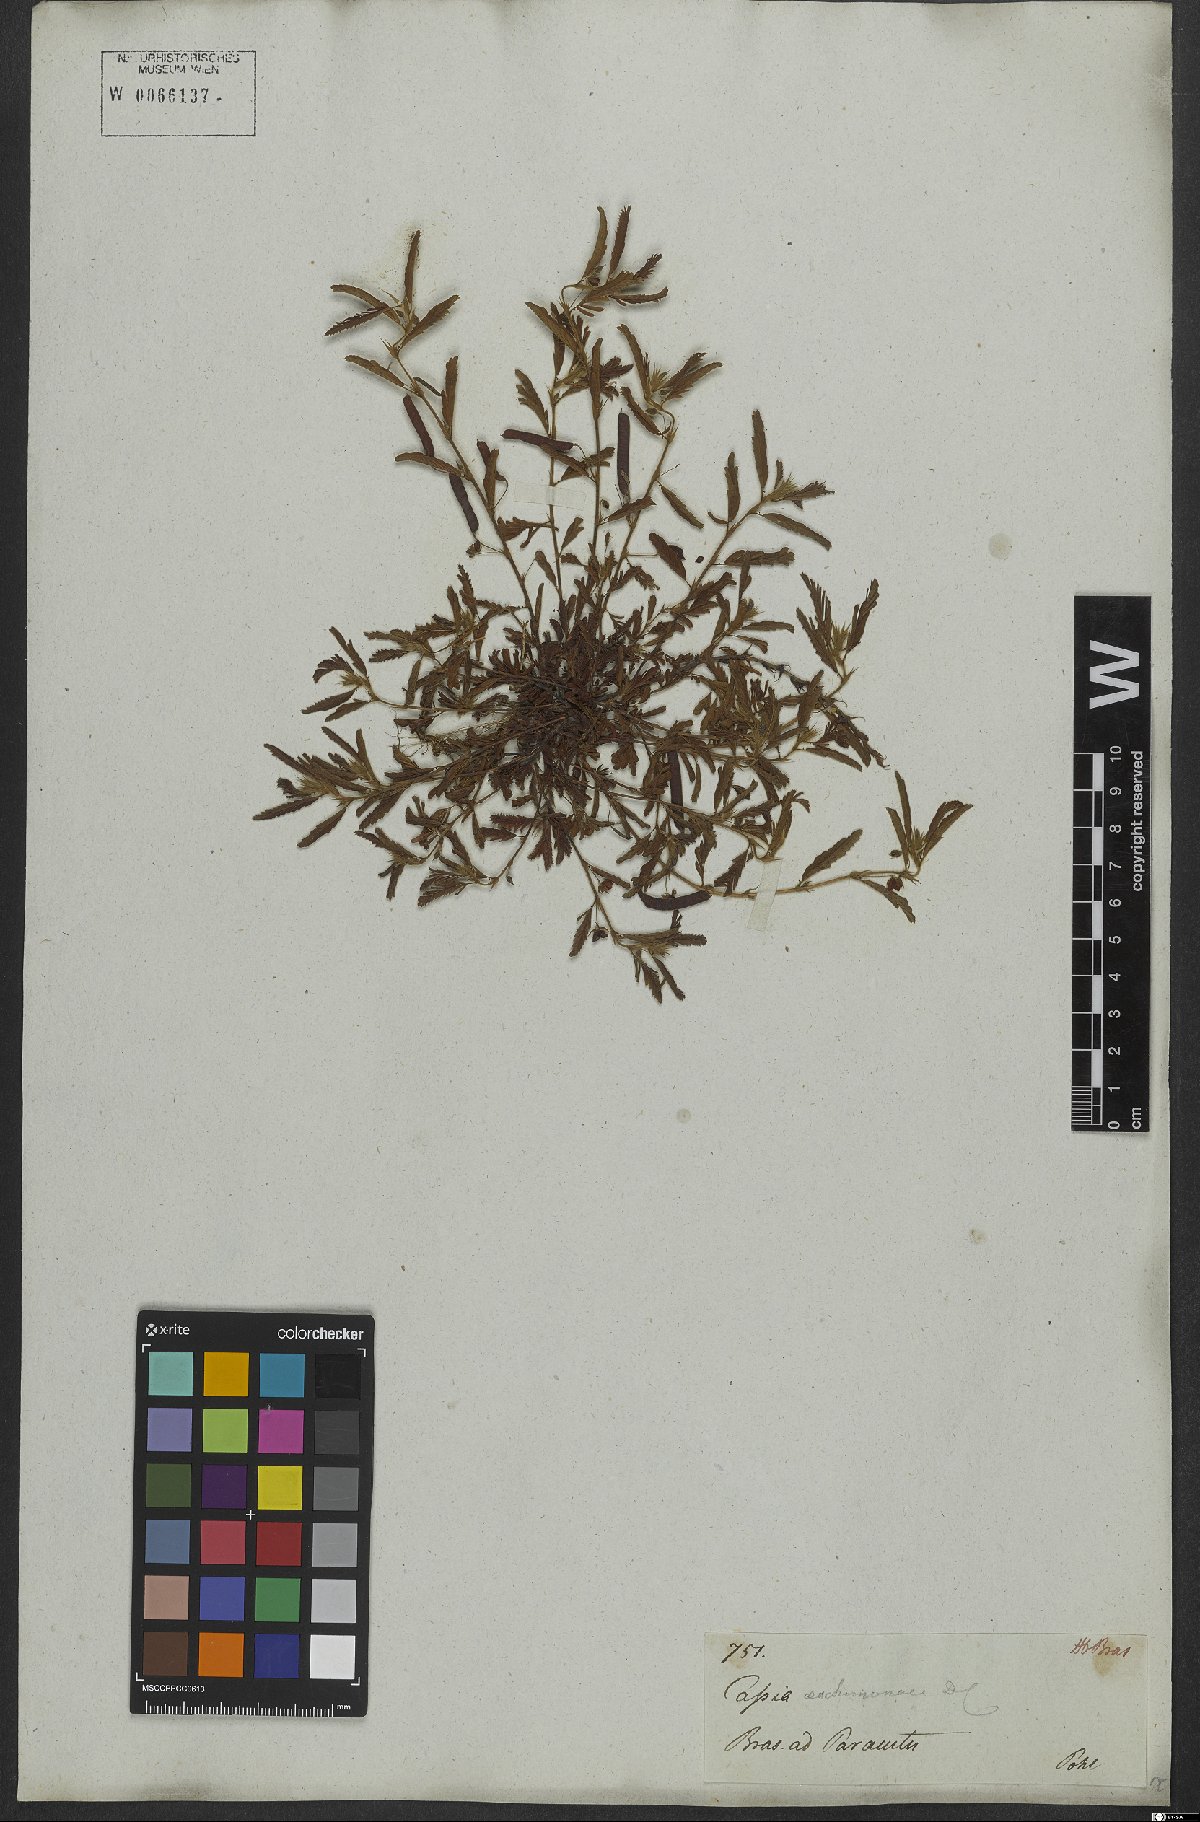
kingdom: Plantae
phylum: Tracheophyta
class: Magnoliopsida
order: Fabales
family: Fabaceae
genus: Chamaecrista
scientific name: Chamaecrista nictitans
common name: Sensitive cassia
